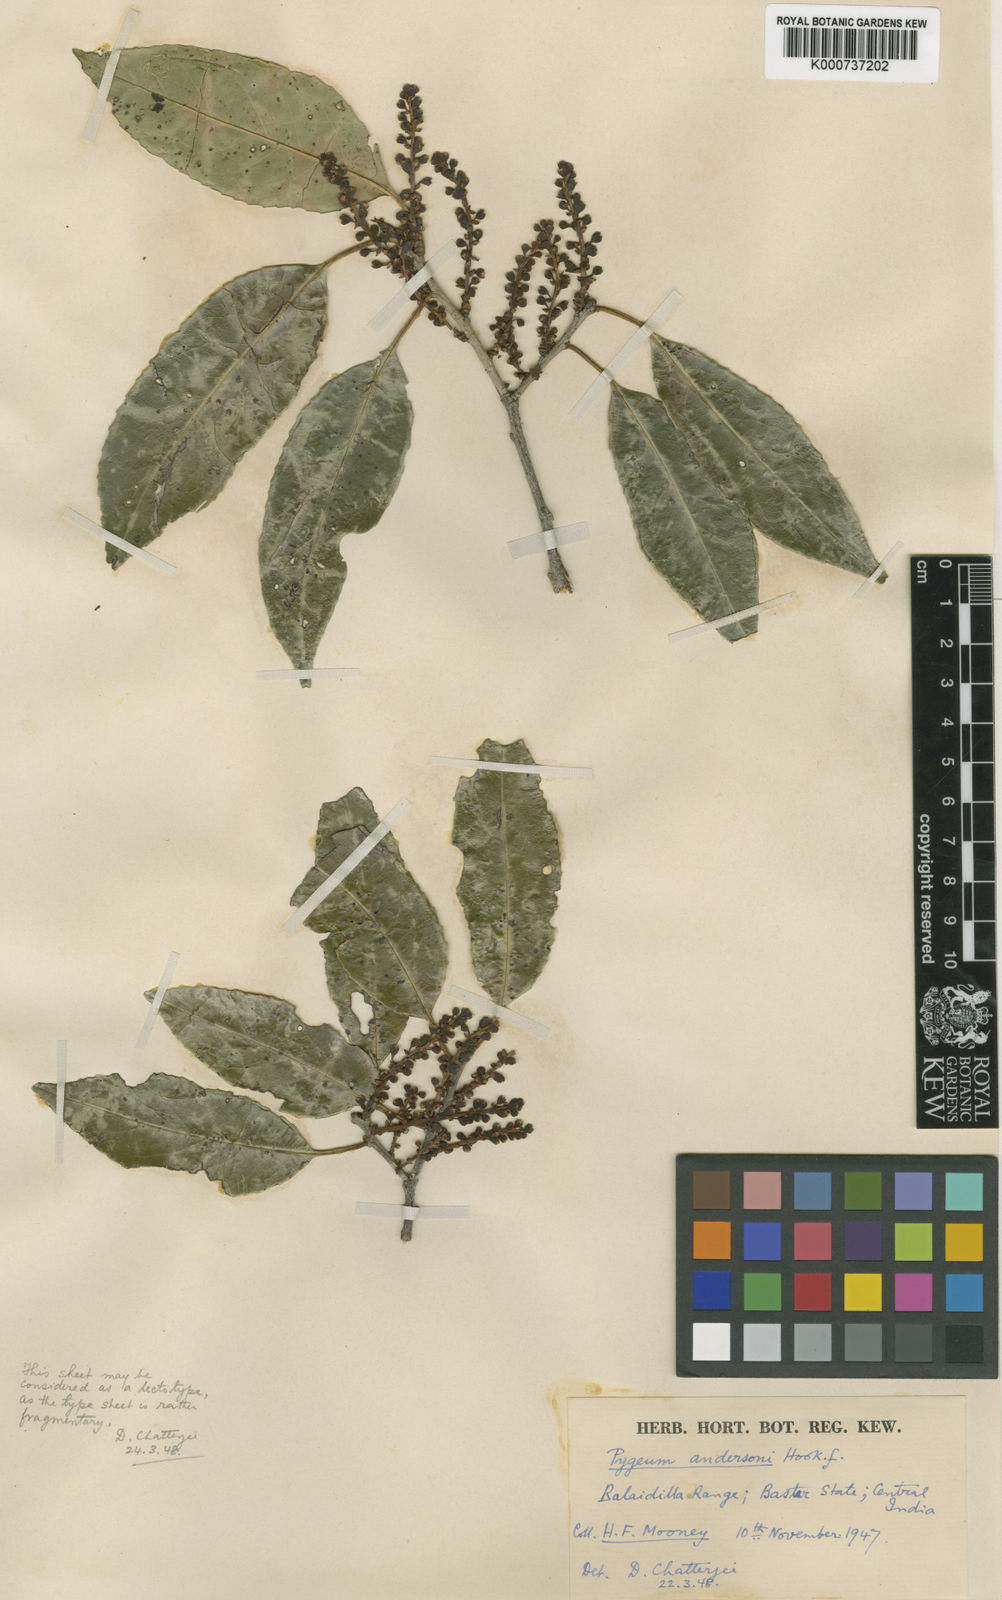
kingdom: Plantae
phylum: Tracheophyta
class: Magnoliopsida
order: Rosales
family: Rosaceae
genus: Prunus
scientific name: Prunus pygeoides
